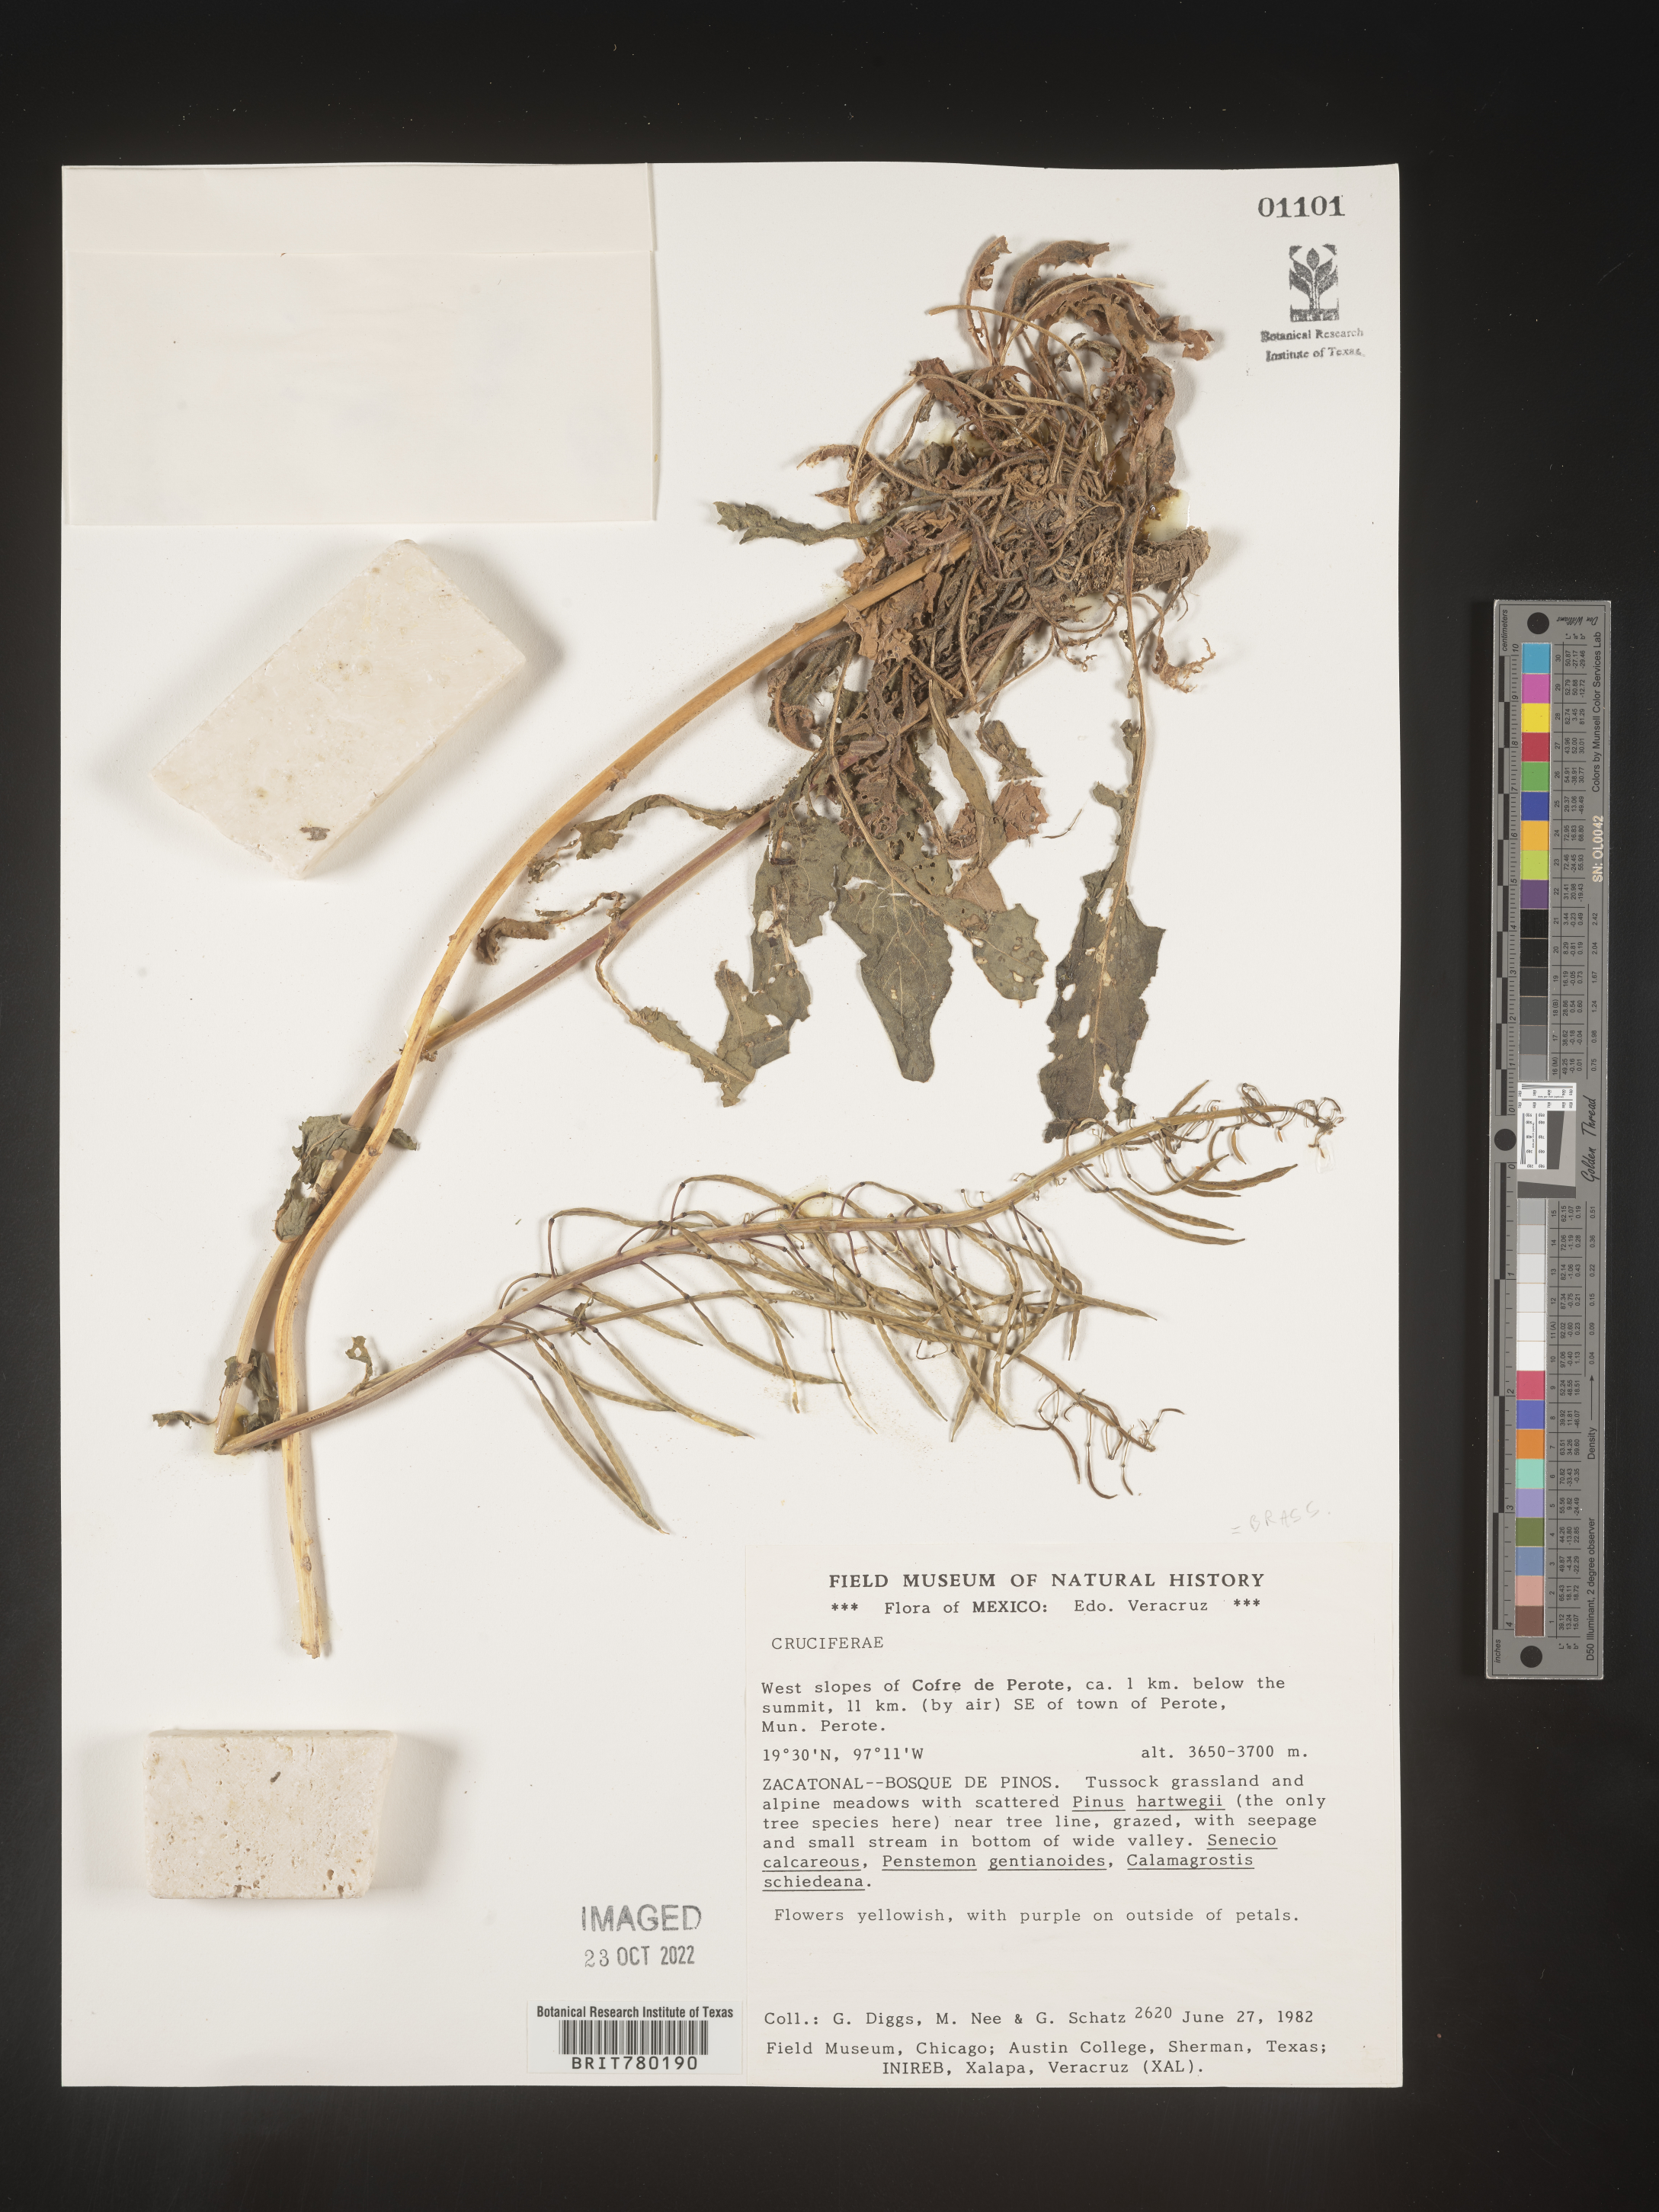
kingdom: Plantae
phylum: Tracheophyta
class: Magnoliopsida
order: Brassicales
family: Brassicaceae
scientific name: Brassicaceae
